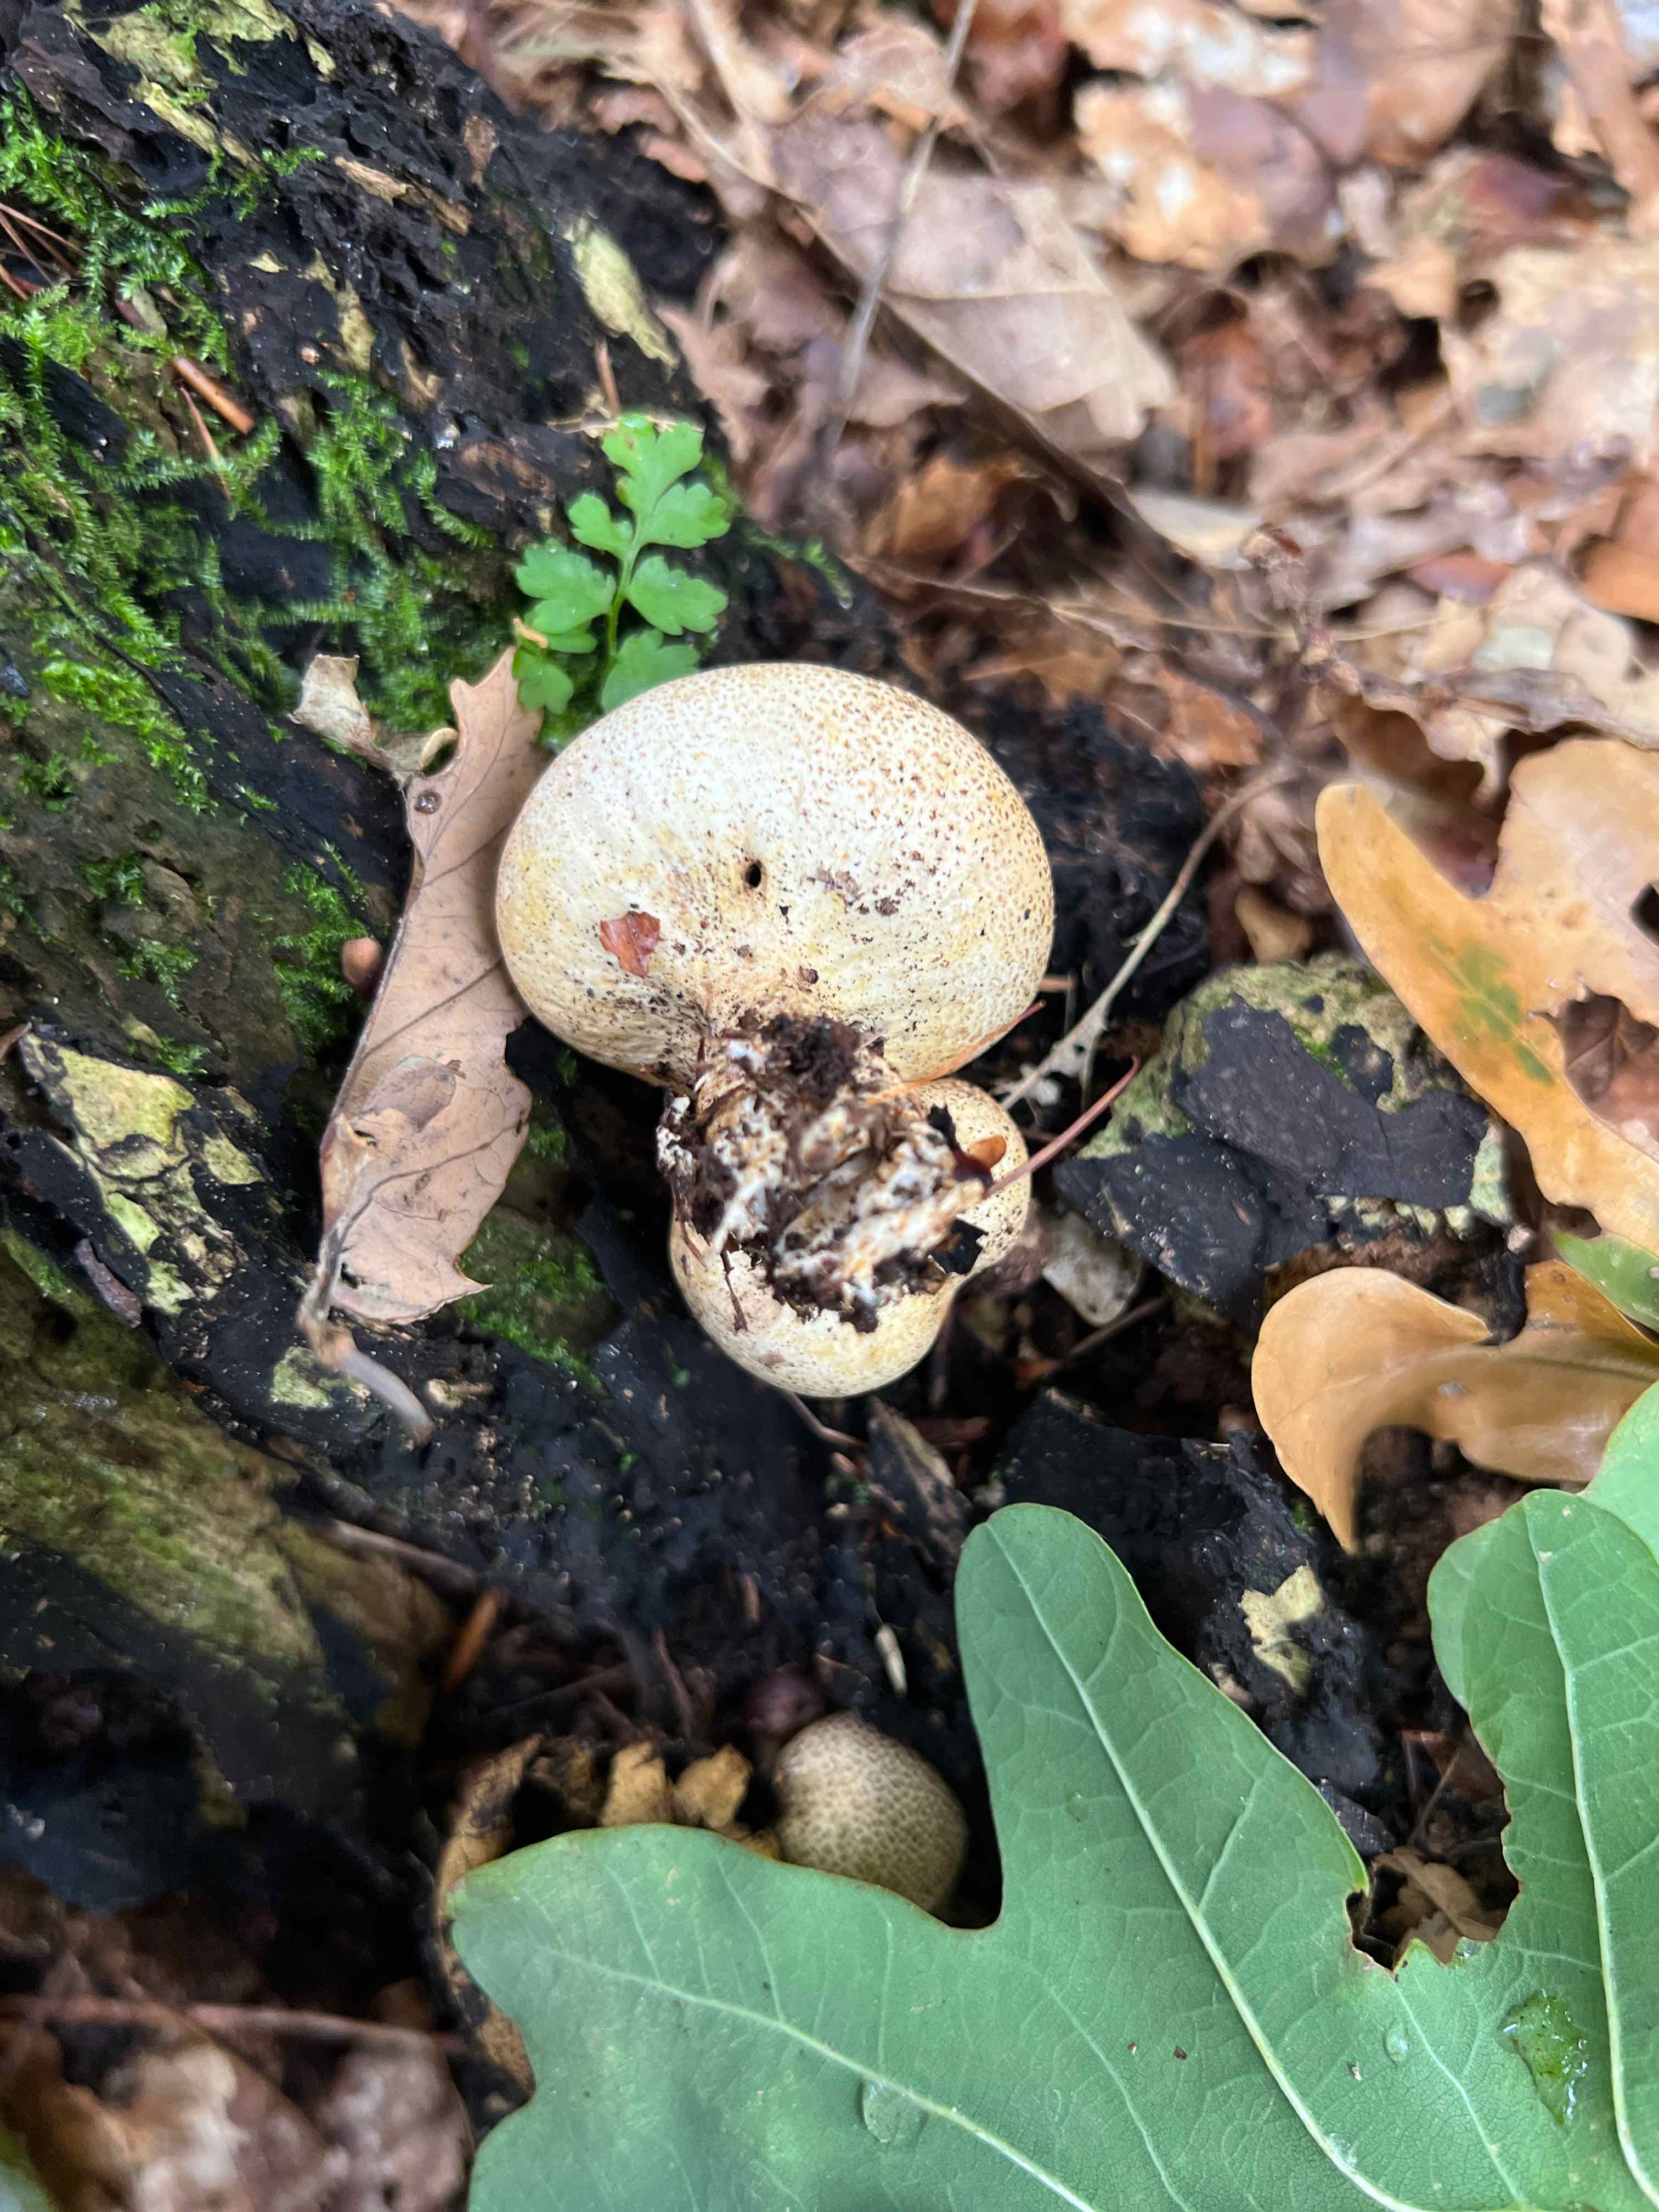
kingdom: Fungi
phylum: Basidiomycota
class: Agaricomycetes
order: Boletales
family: Sclerodermataceae
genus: Scleroderma
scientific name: Scleroderma areolatum
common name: plettet bruskbold
